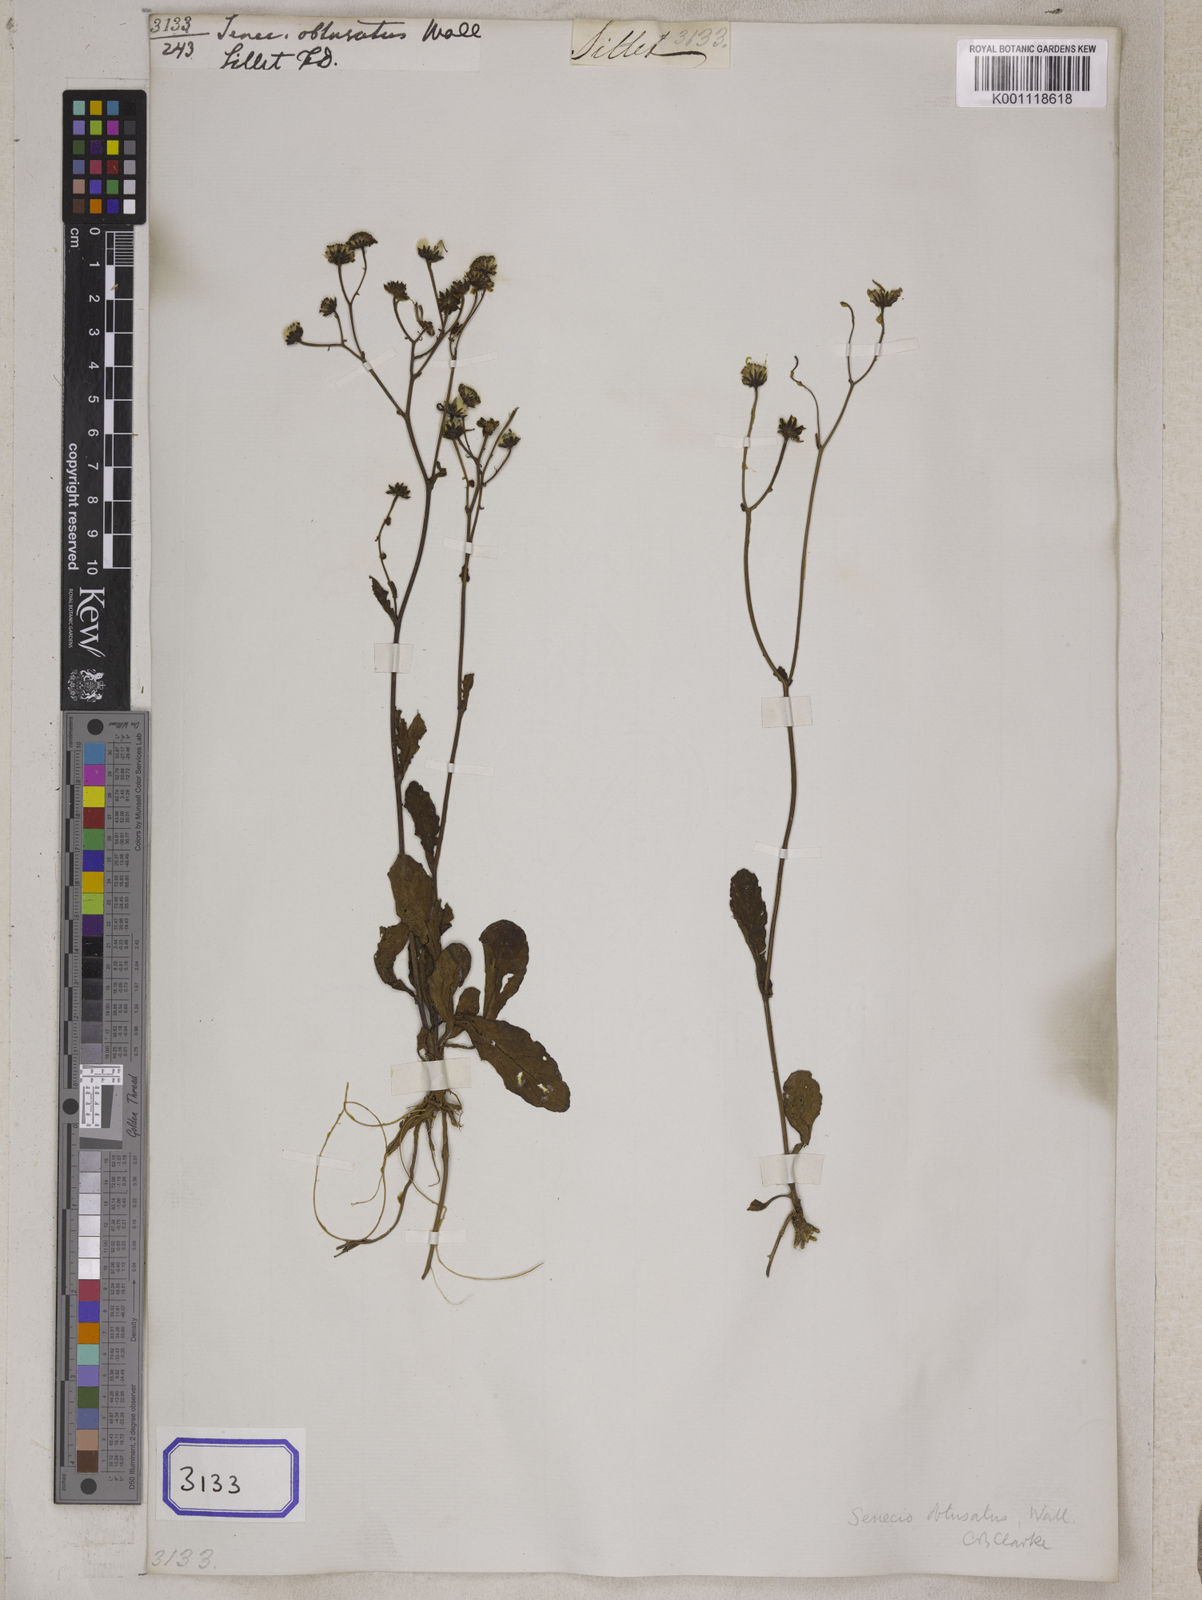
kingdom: Plantae
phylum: Tracheophyta
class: Magnoliopsida
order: Asterales
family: Asteraceae
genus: Senecio
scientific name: Senecio
